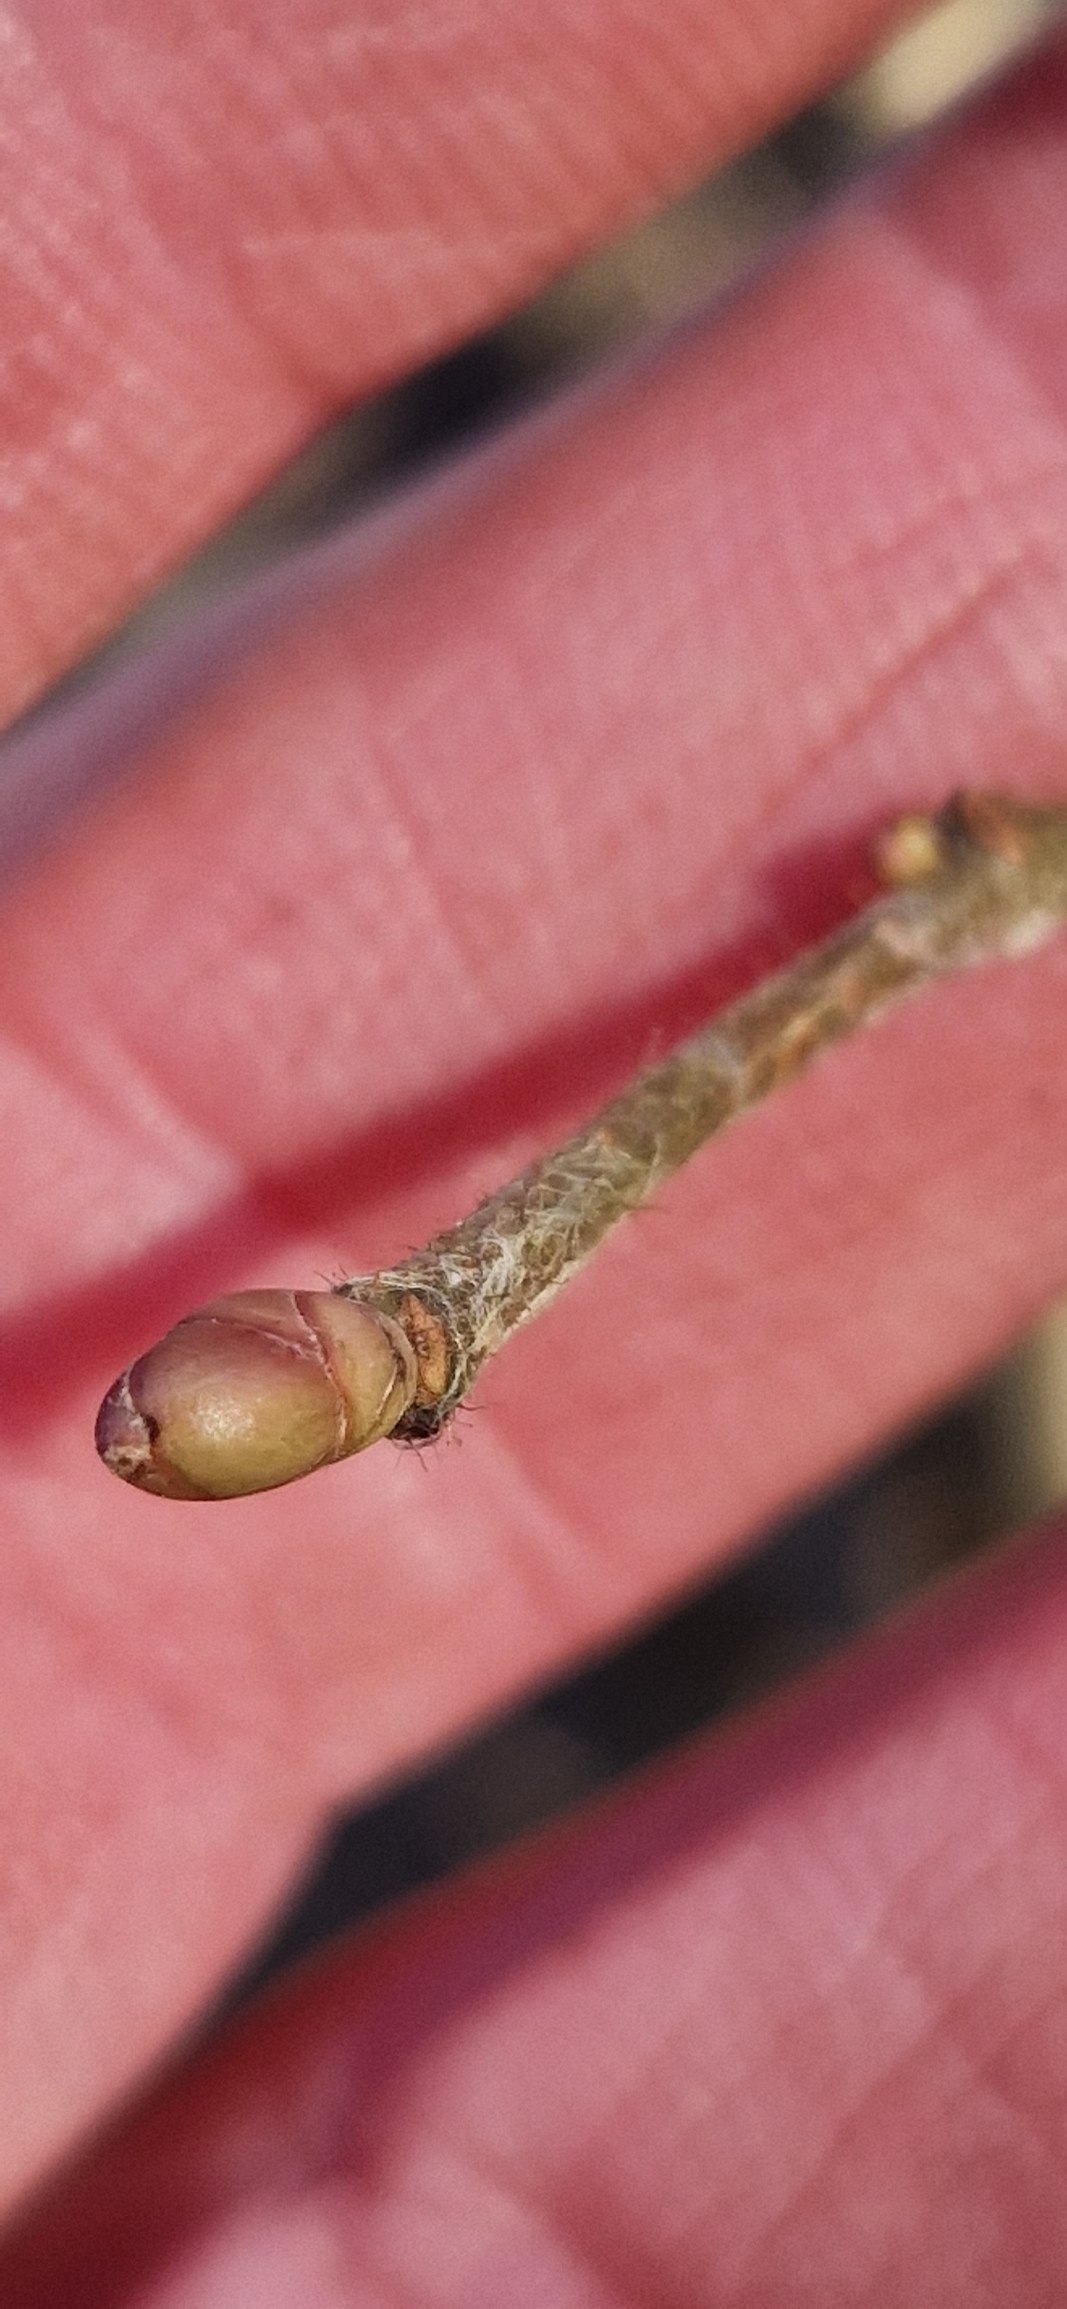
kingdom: Plantae
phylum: Tracheophyta
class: Magnoliopsida
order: Fagales
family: Betulaceae
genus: Corylus
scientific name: Corylus avellana
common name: Hassel
